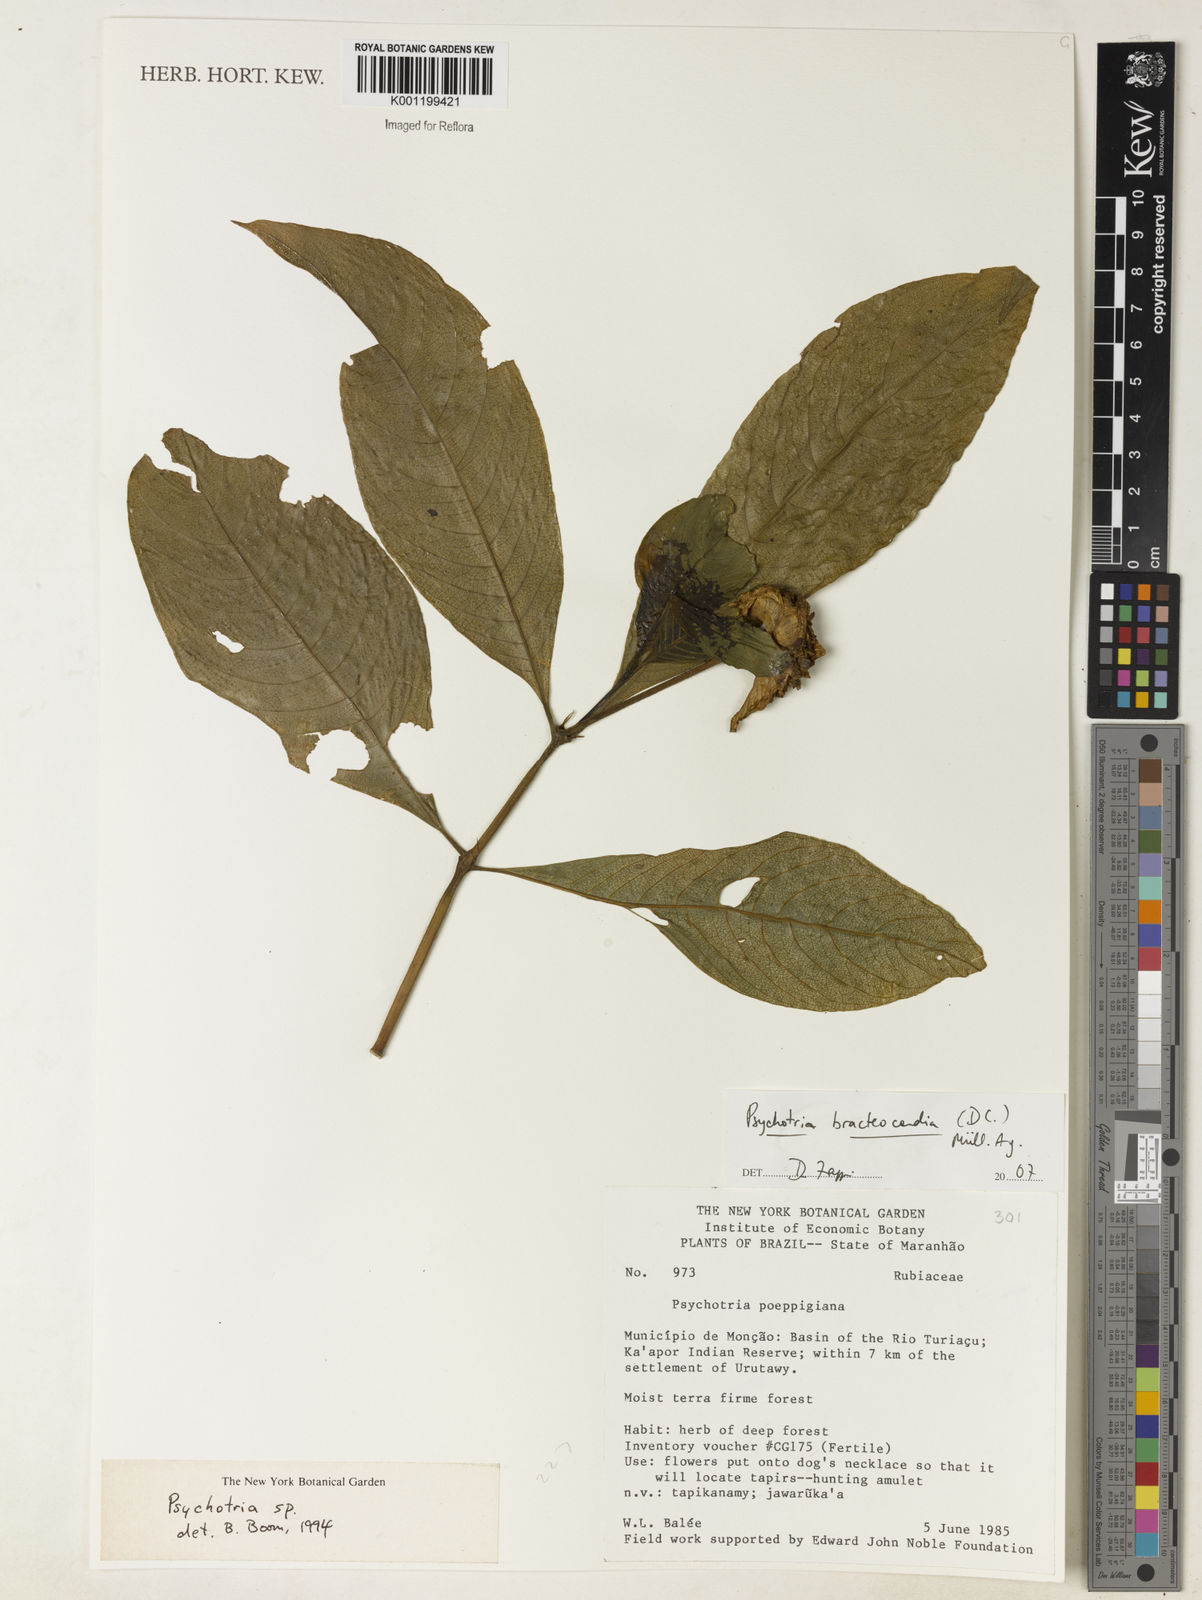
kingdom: Plantae
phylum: Tracheophyta
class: Magnoliopsida
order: Gentianales
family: Rubiaceae
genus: Psychotria
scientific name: Psychotria
